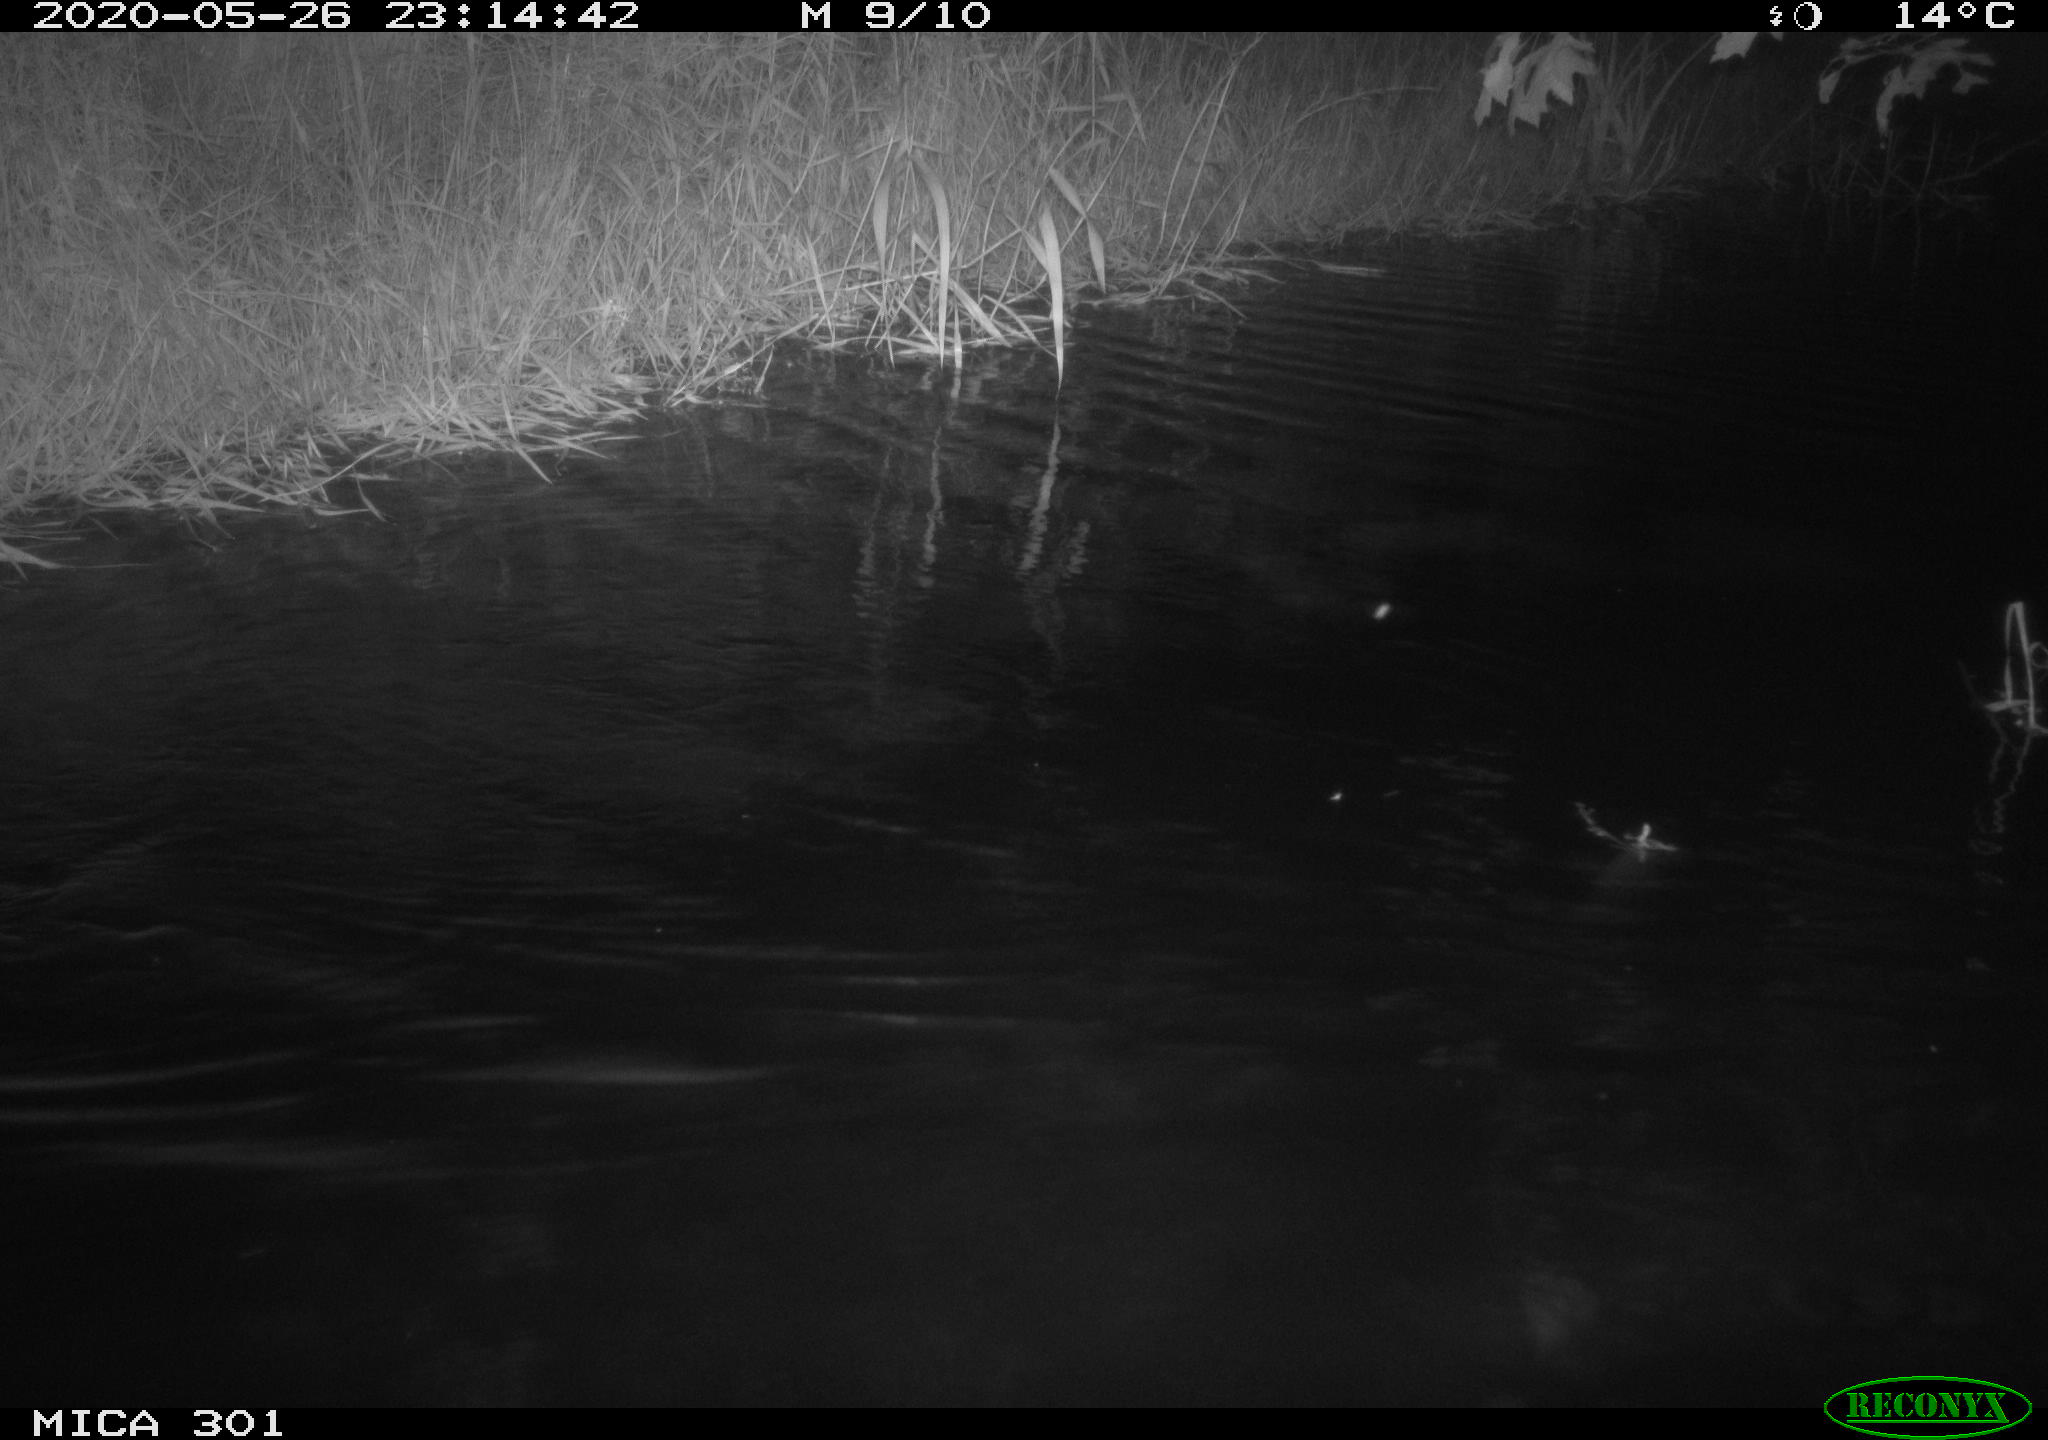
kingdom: Animalia
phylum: Chordata
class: Mammalia
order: Rodentia
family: Castoridae
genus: Castor
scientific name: Castor fiber
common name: Eurasian beaver
